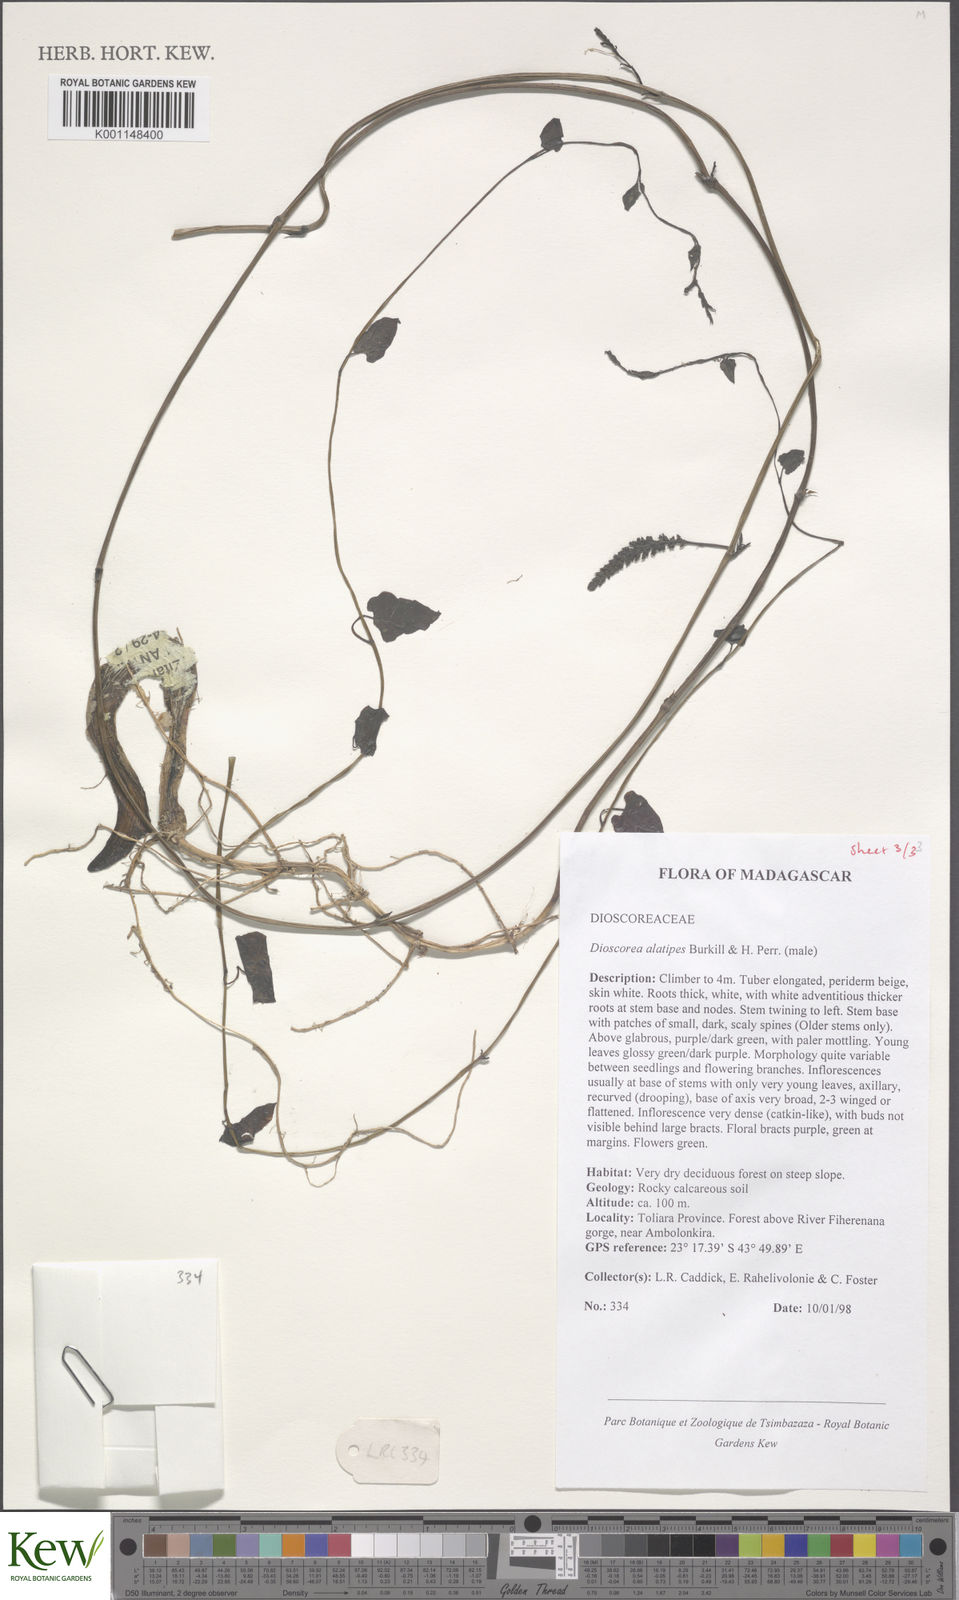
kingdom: Plantae
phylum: Tracheophyta
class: Liliopsida
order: Dioscoreales
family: Dioscoreaceae
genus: Dioscorea
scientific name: Dioscorea alatipes
